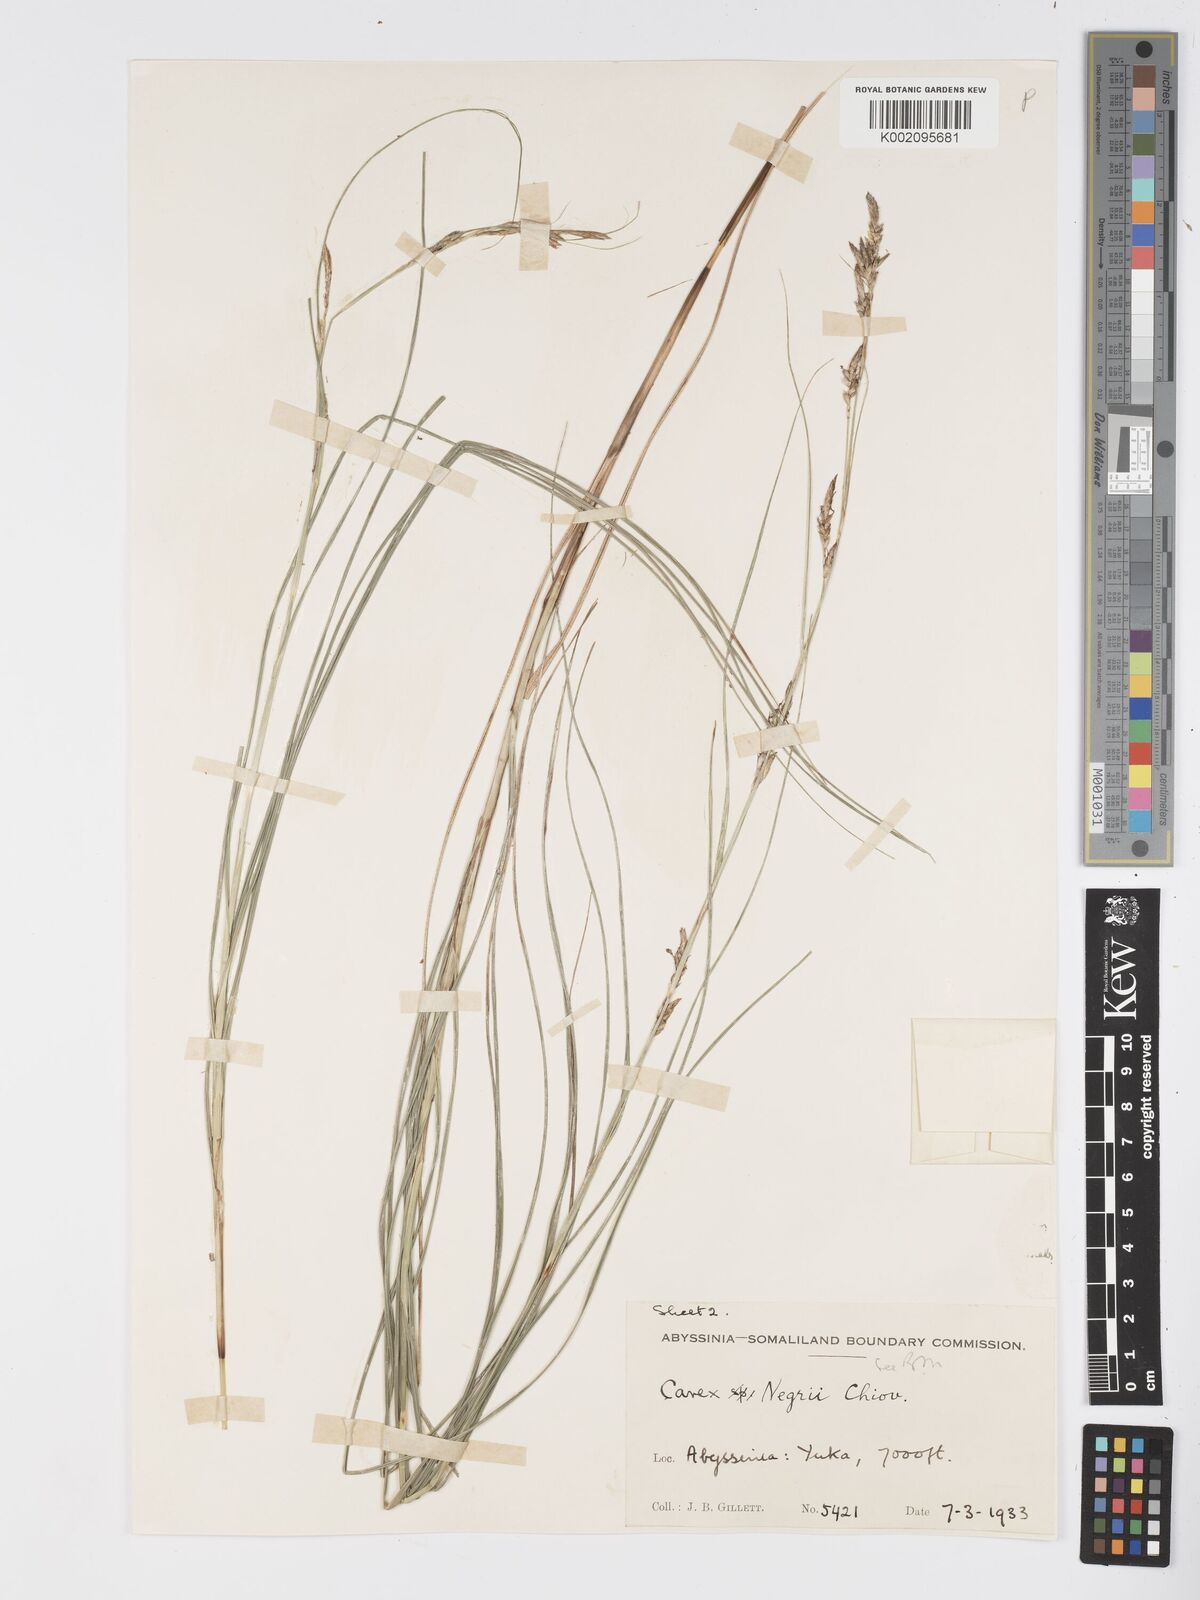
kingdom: Plantae
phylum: Tracheophyta
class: Liliopsida
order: Poales
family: Cyperaceae
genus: Carex
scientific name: Carex negrii
